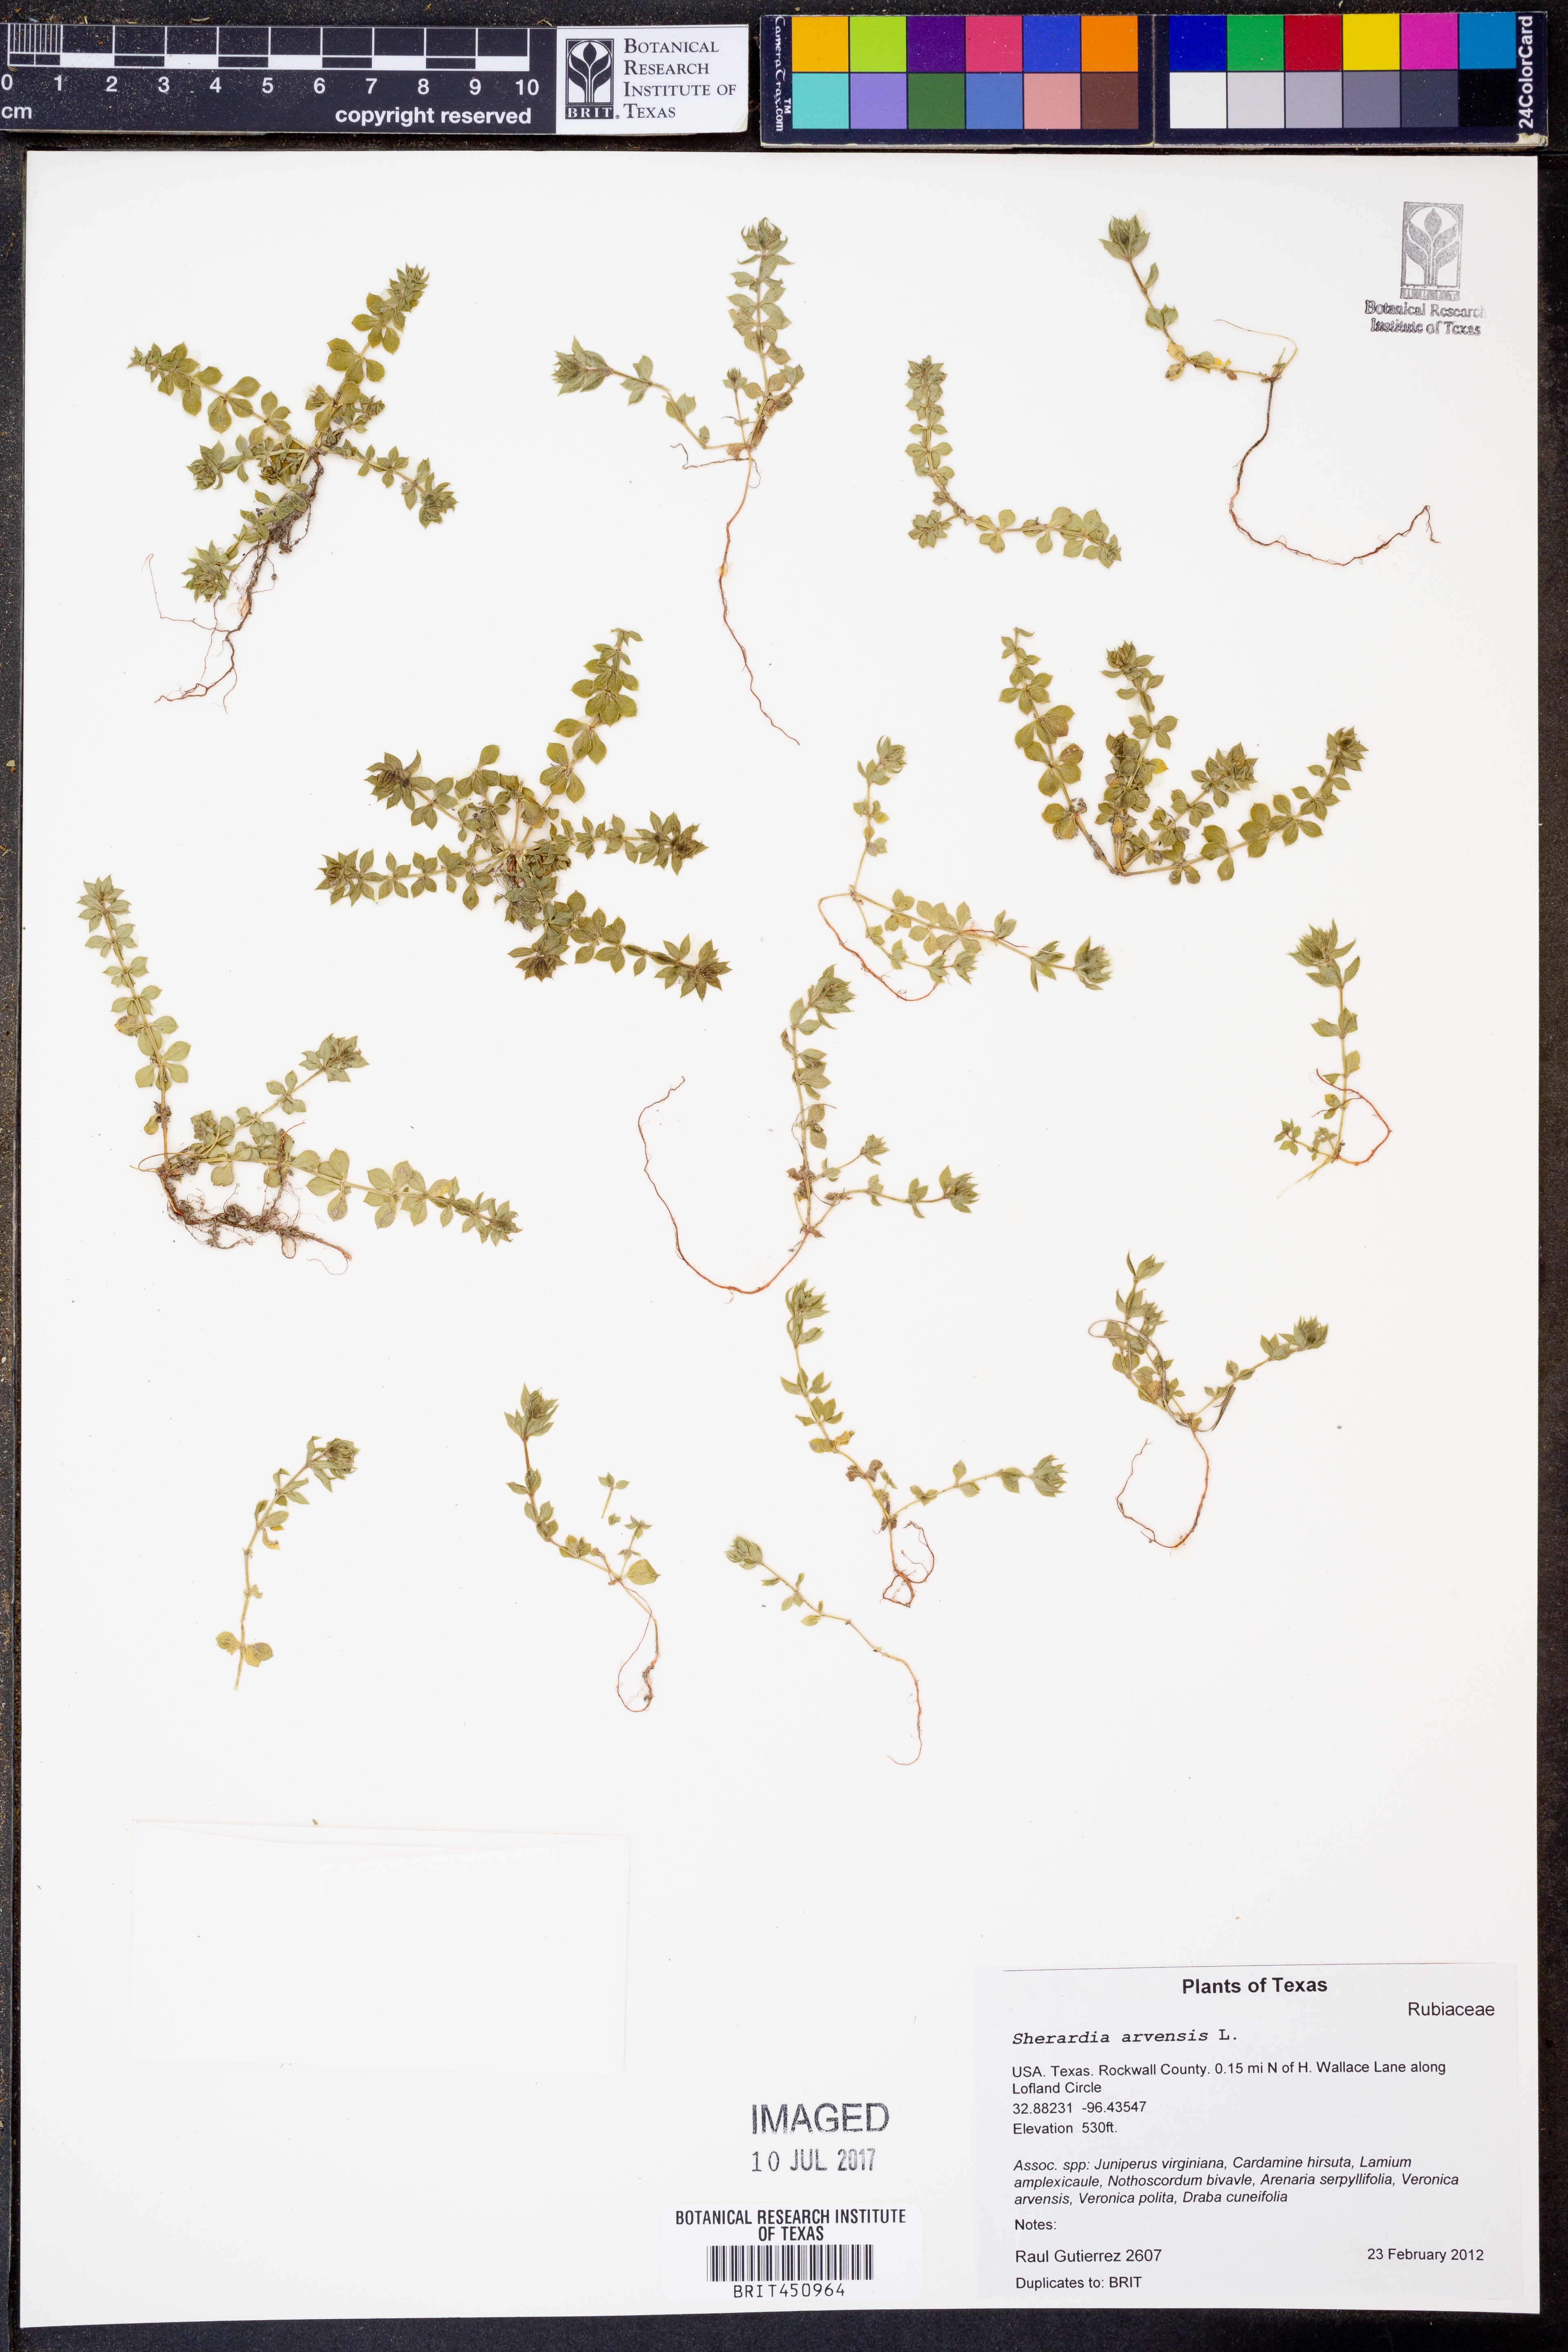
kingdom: Plantae
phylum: Tracheophyta
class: Magnoliopsida
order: Gentianales
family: Rubiaceae
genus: Sherardia
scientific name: Sherardia arvensis
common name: Field madder
